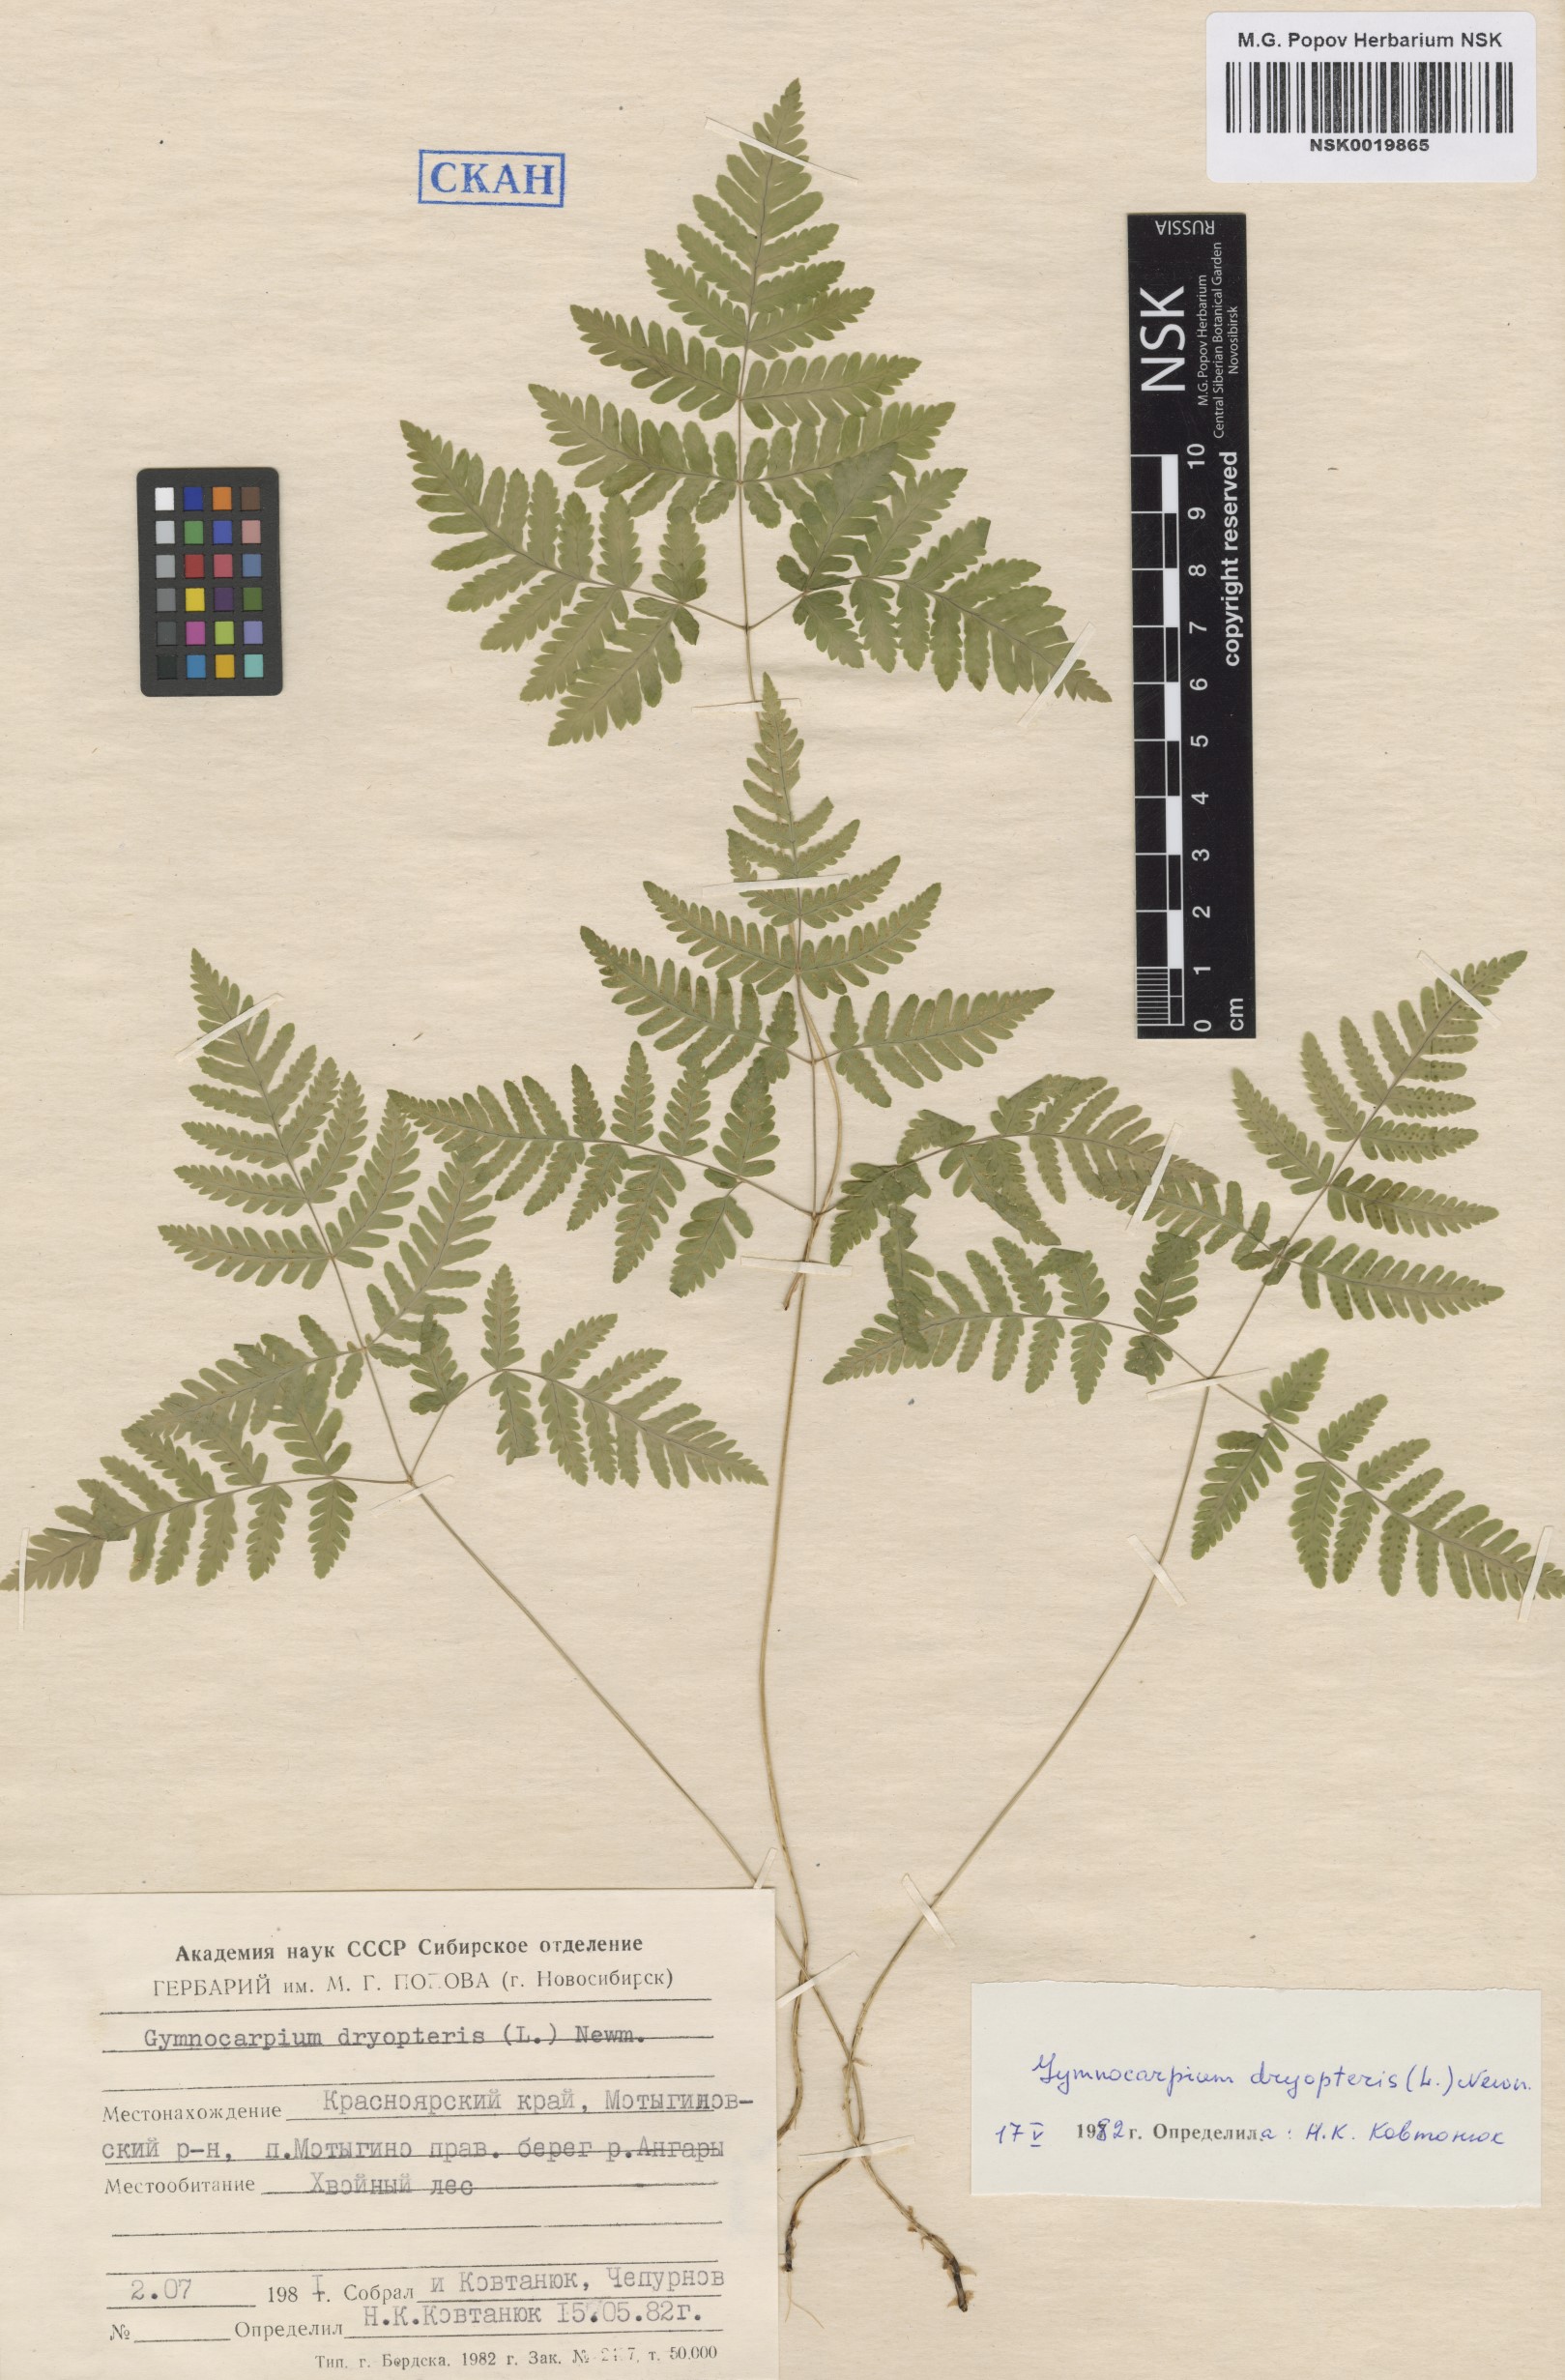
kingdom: Plantae
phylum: Tracheophyta
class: Polypodiopsida
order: Polypodiales
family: Cystopteridaceae
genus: Gymnocarpium
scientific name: Gymnocarpium dryopteris
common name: Oak fern
